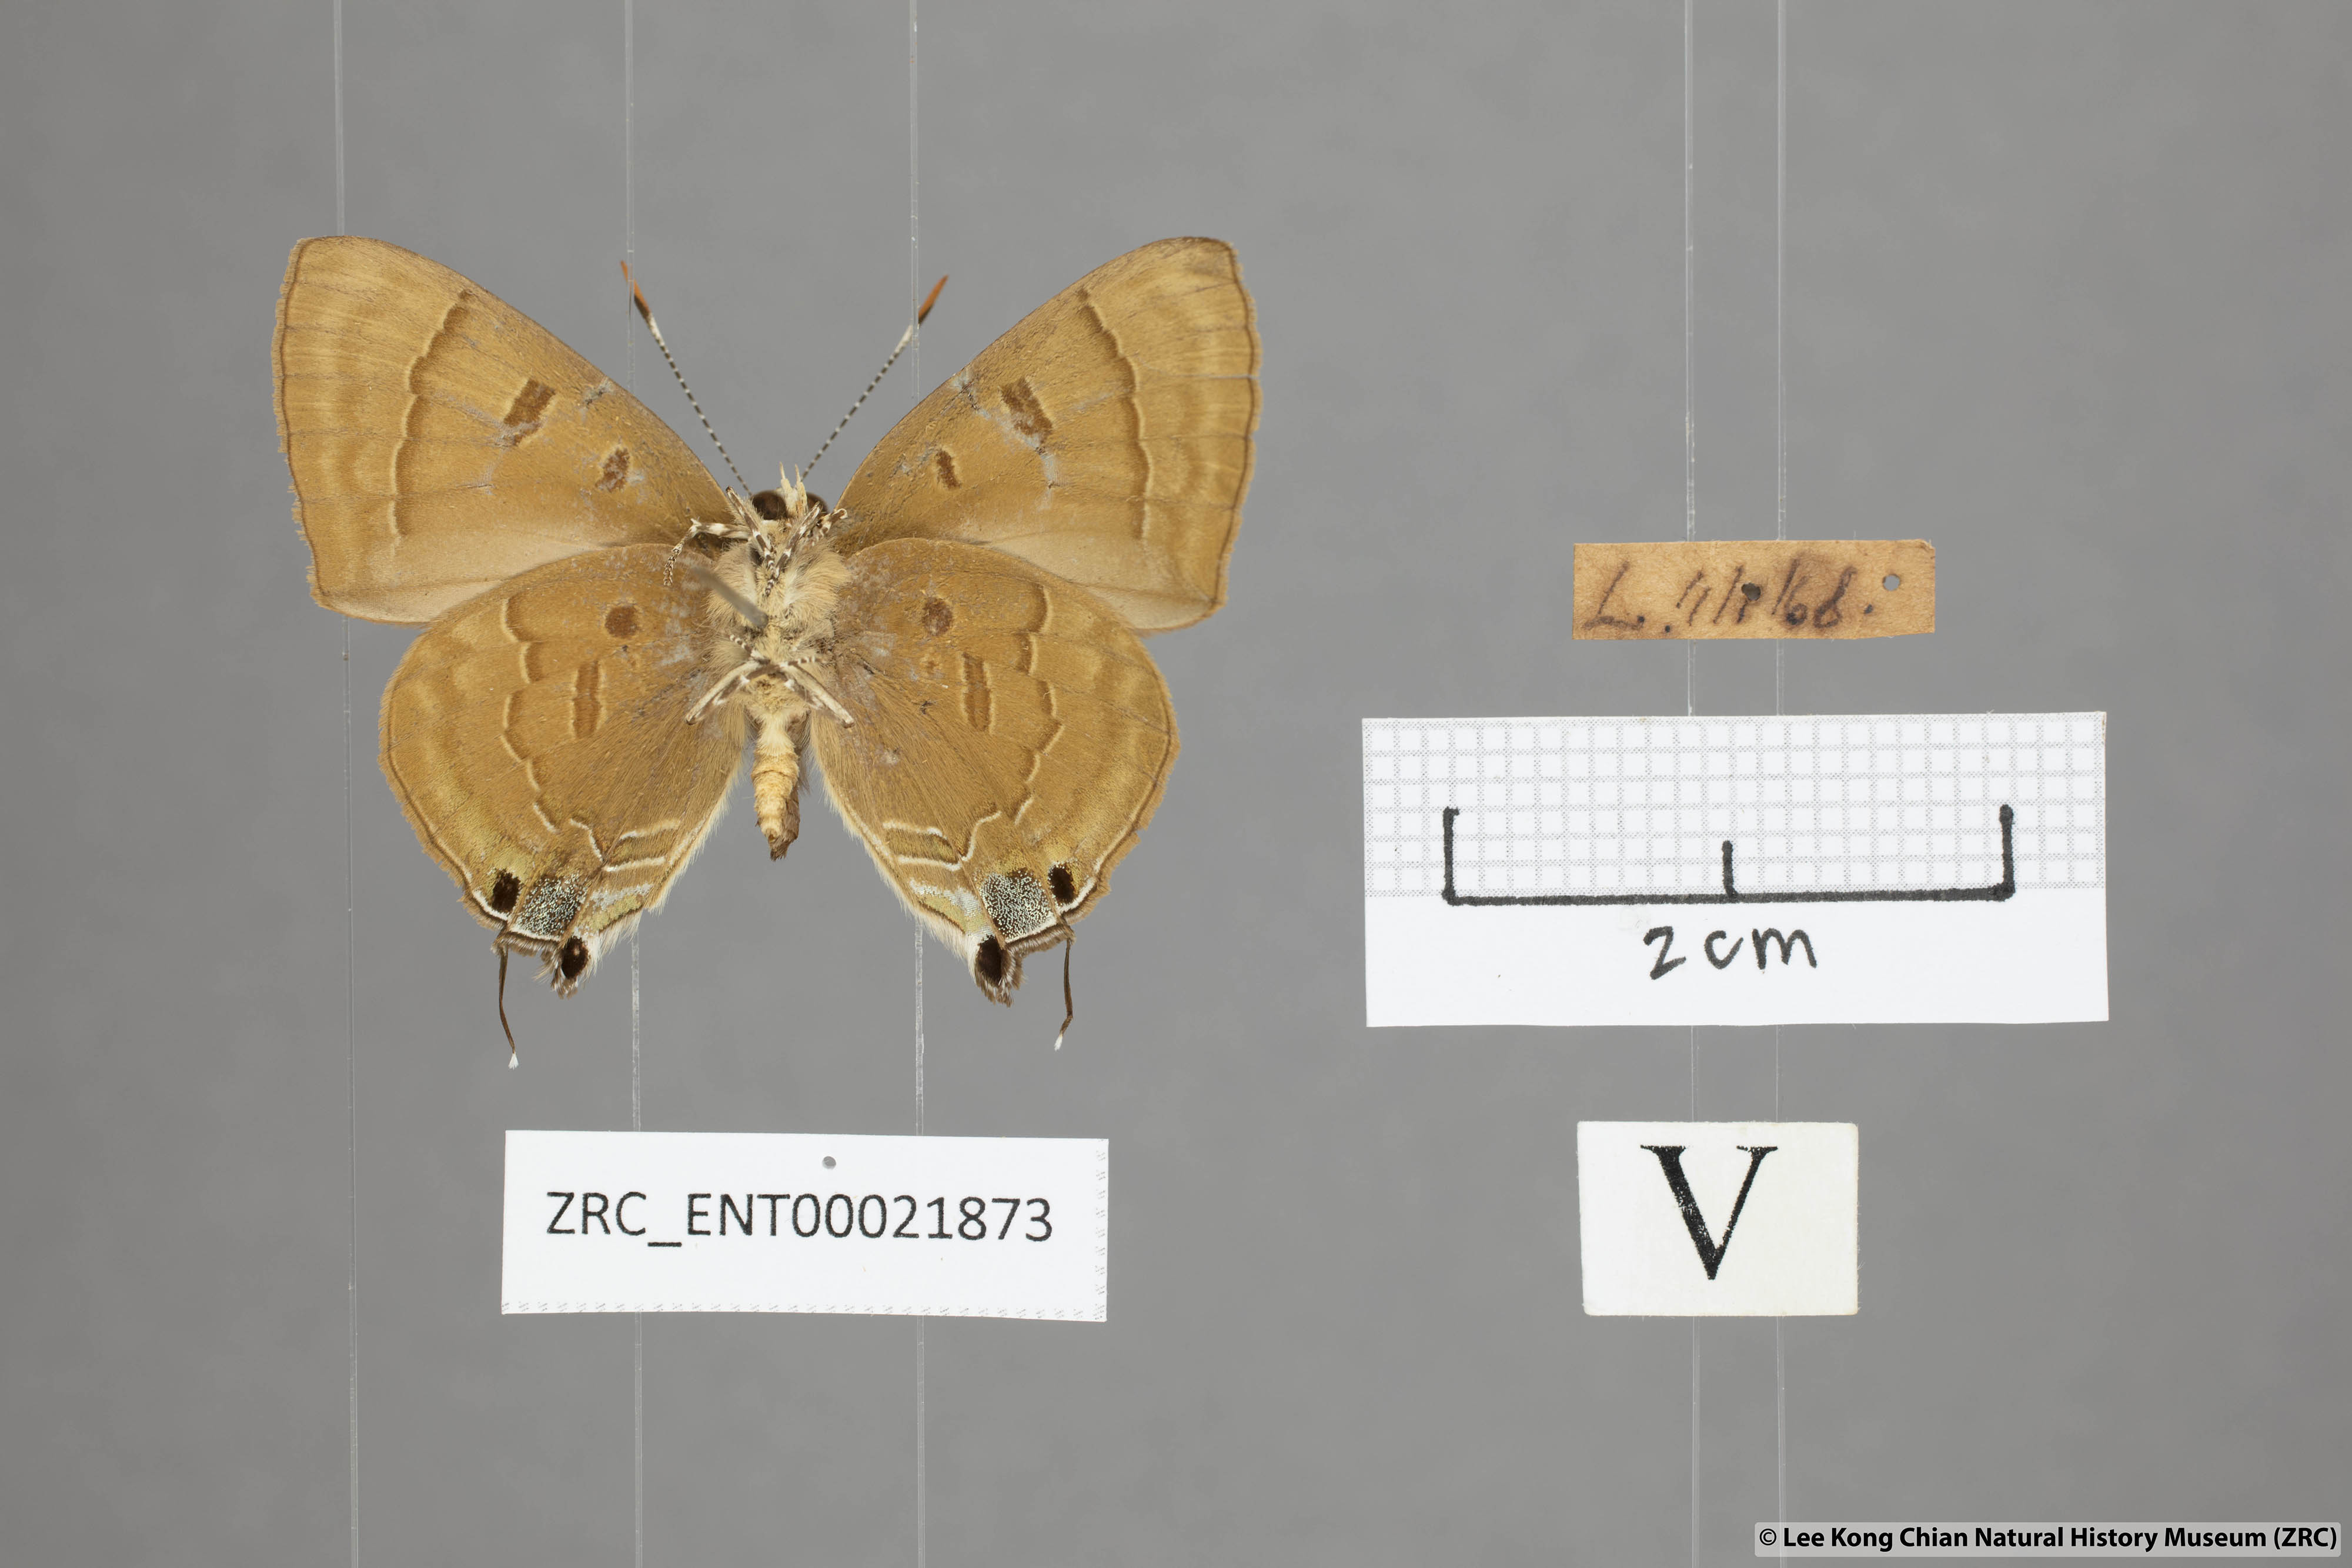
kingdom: Animalia
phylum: Arthropoda
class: Insecta
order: Lepidoptera
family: Lycaenidae
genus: Rapala
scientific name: Rapala pheretima
